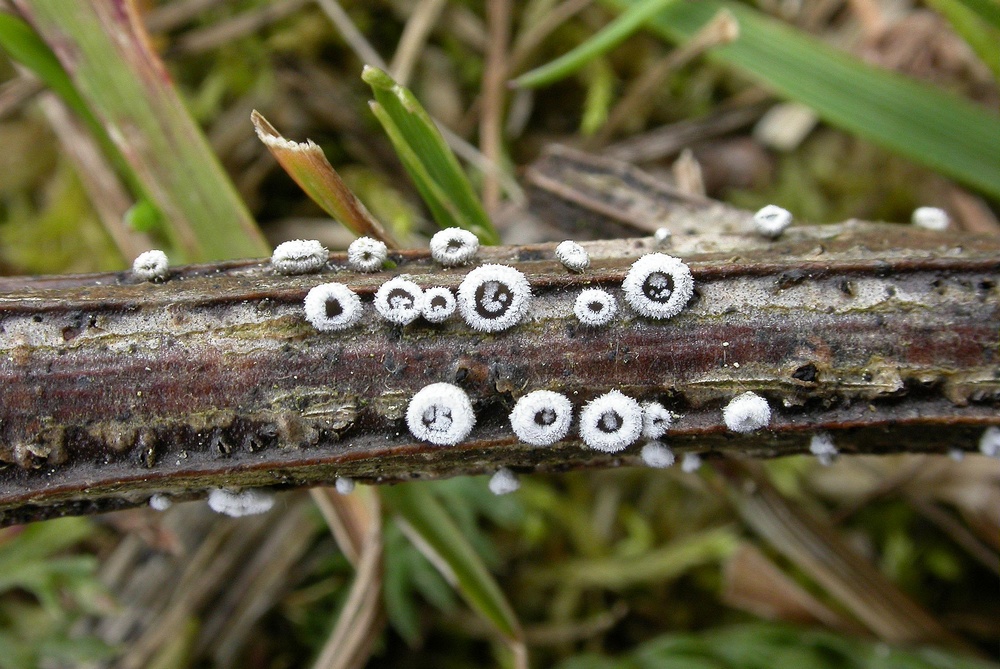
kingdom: Fungi
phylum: Basidiomycota
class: Agaricomycetes
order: Agaricales
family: Niaceae
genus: Lachnella
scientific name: Lachnella alboviolascens
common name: grå frynserede
